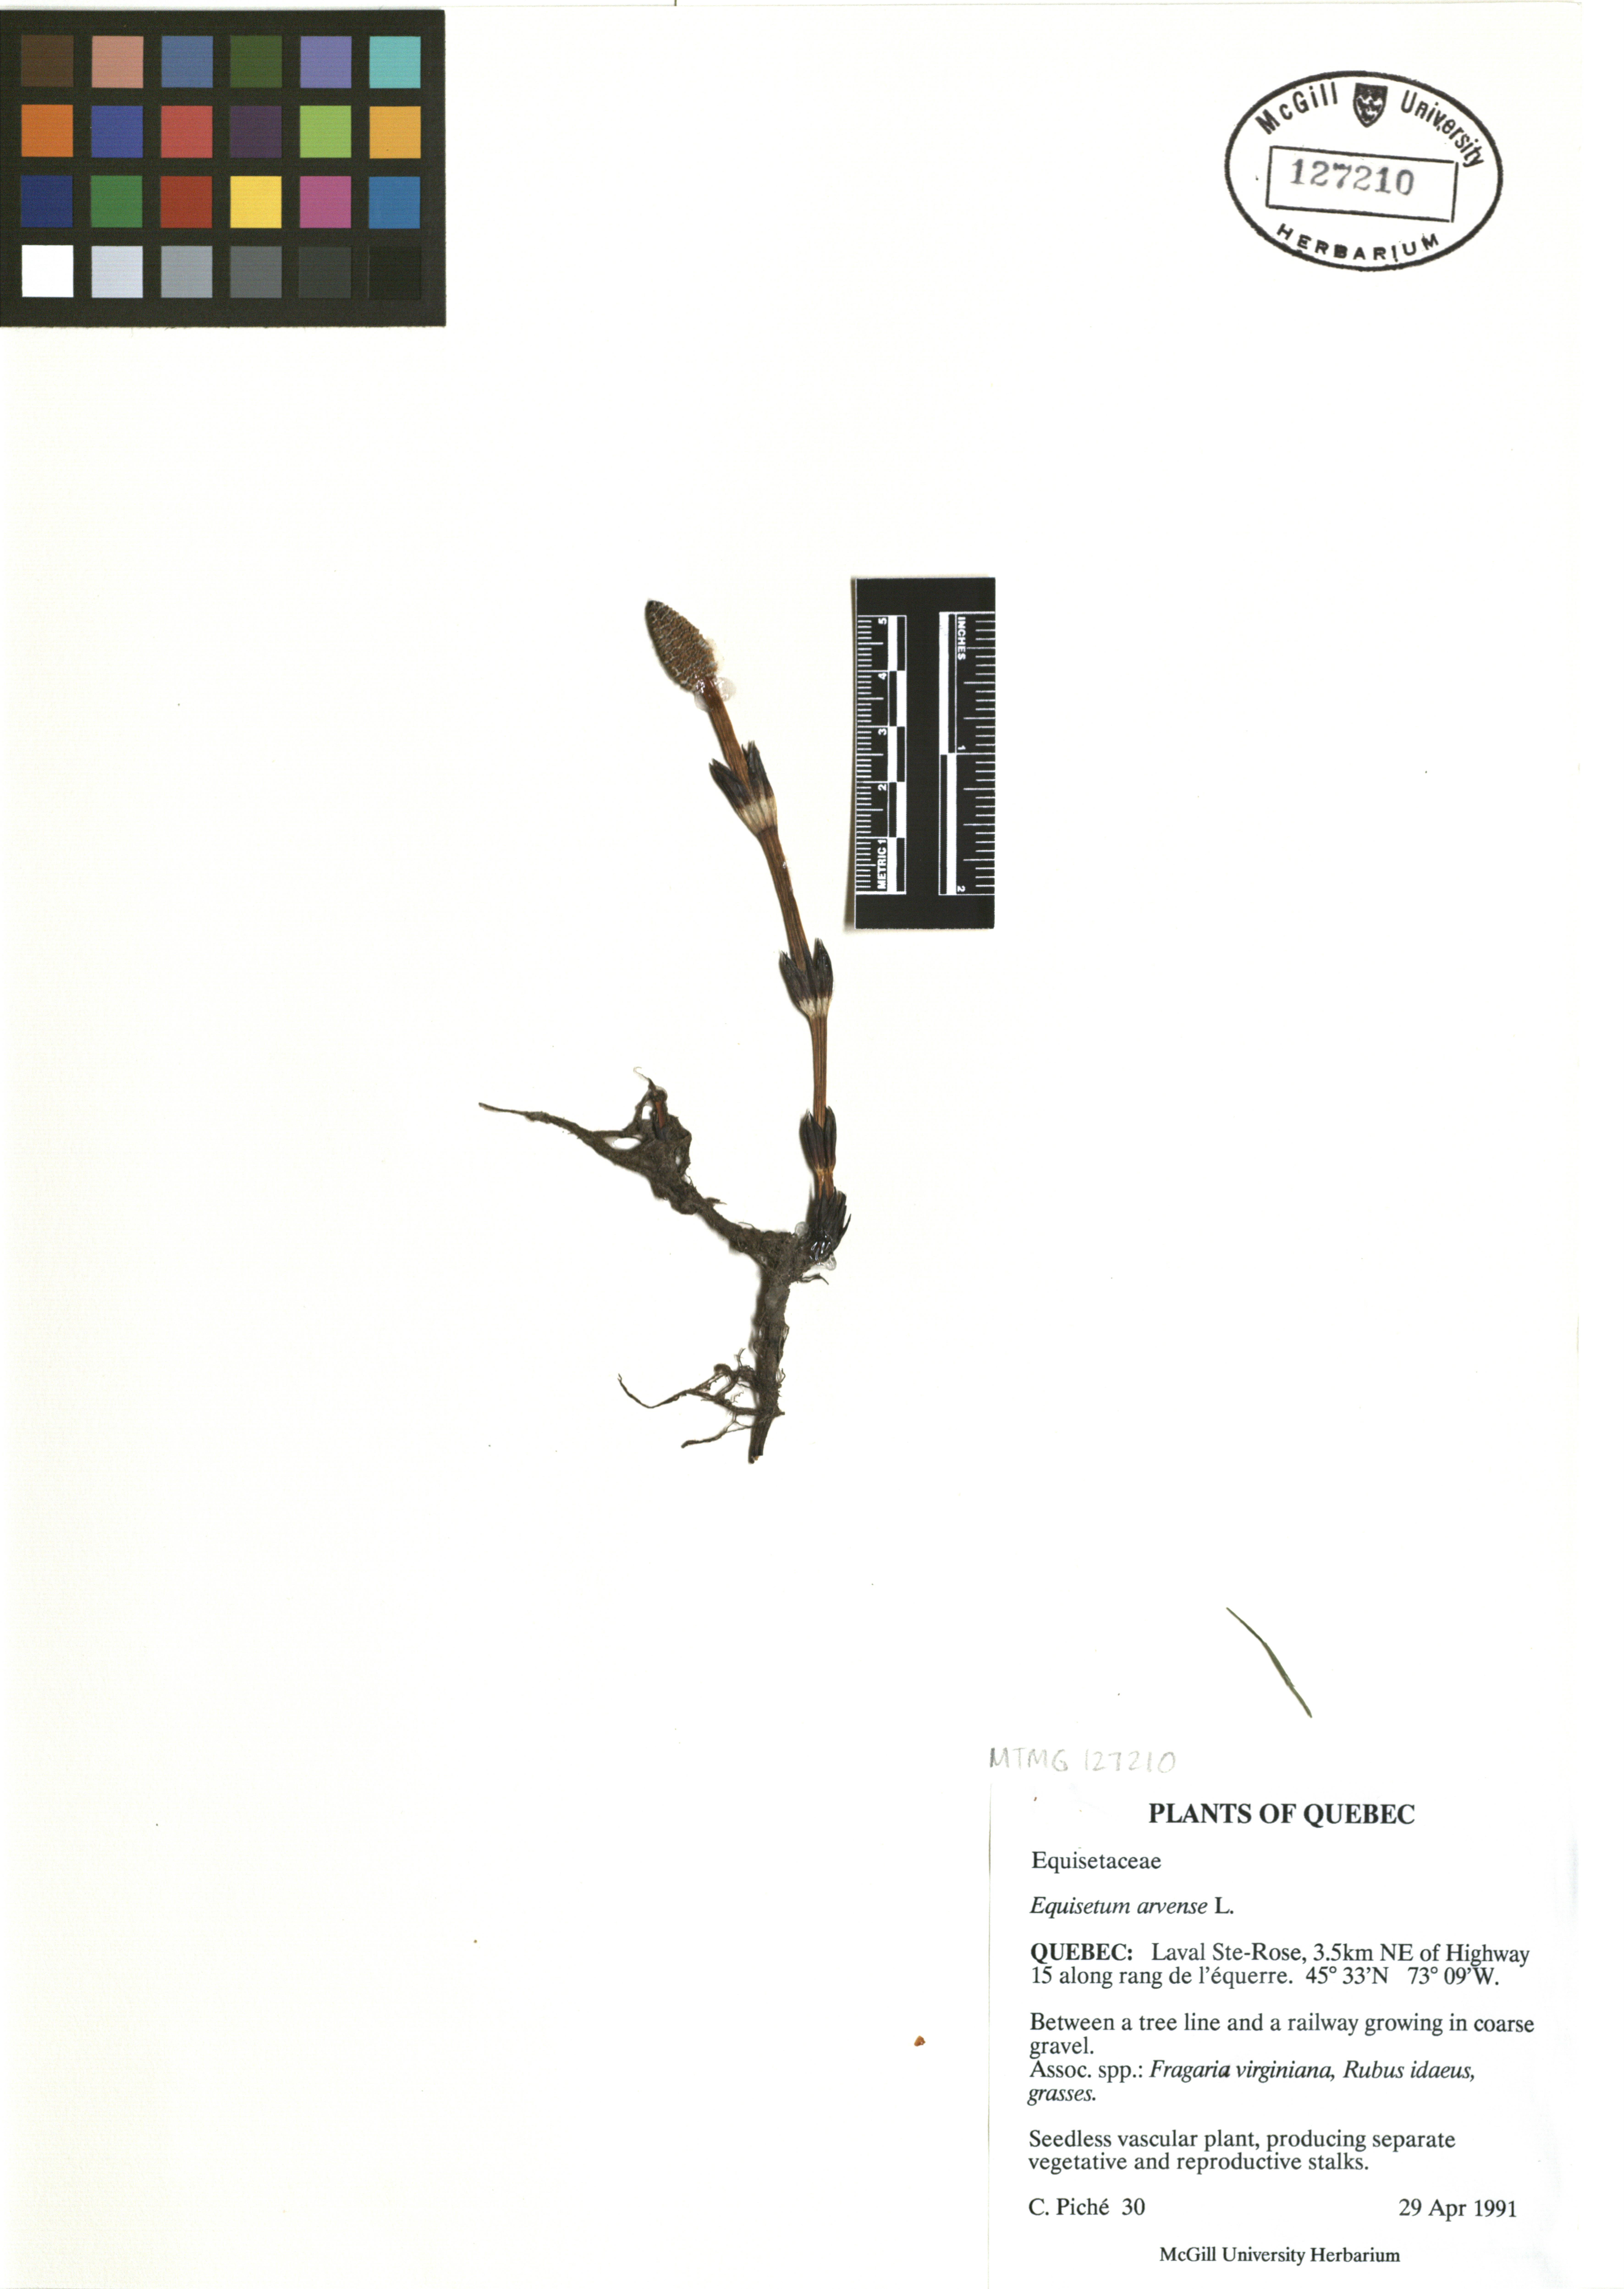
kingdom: Plantae
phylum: Tracheophyta
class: Polypodiopsida
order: Equisetales
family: Equisetaceae
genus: Equisetum
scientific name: Equisetum arvense
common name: Field horsetail
